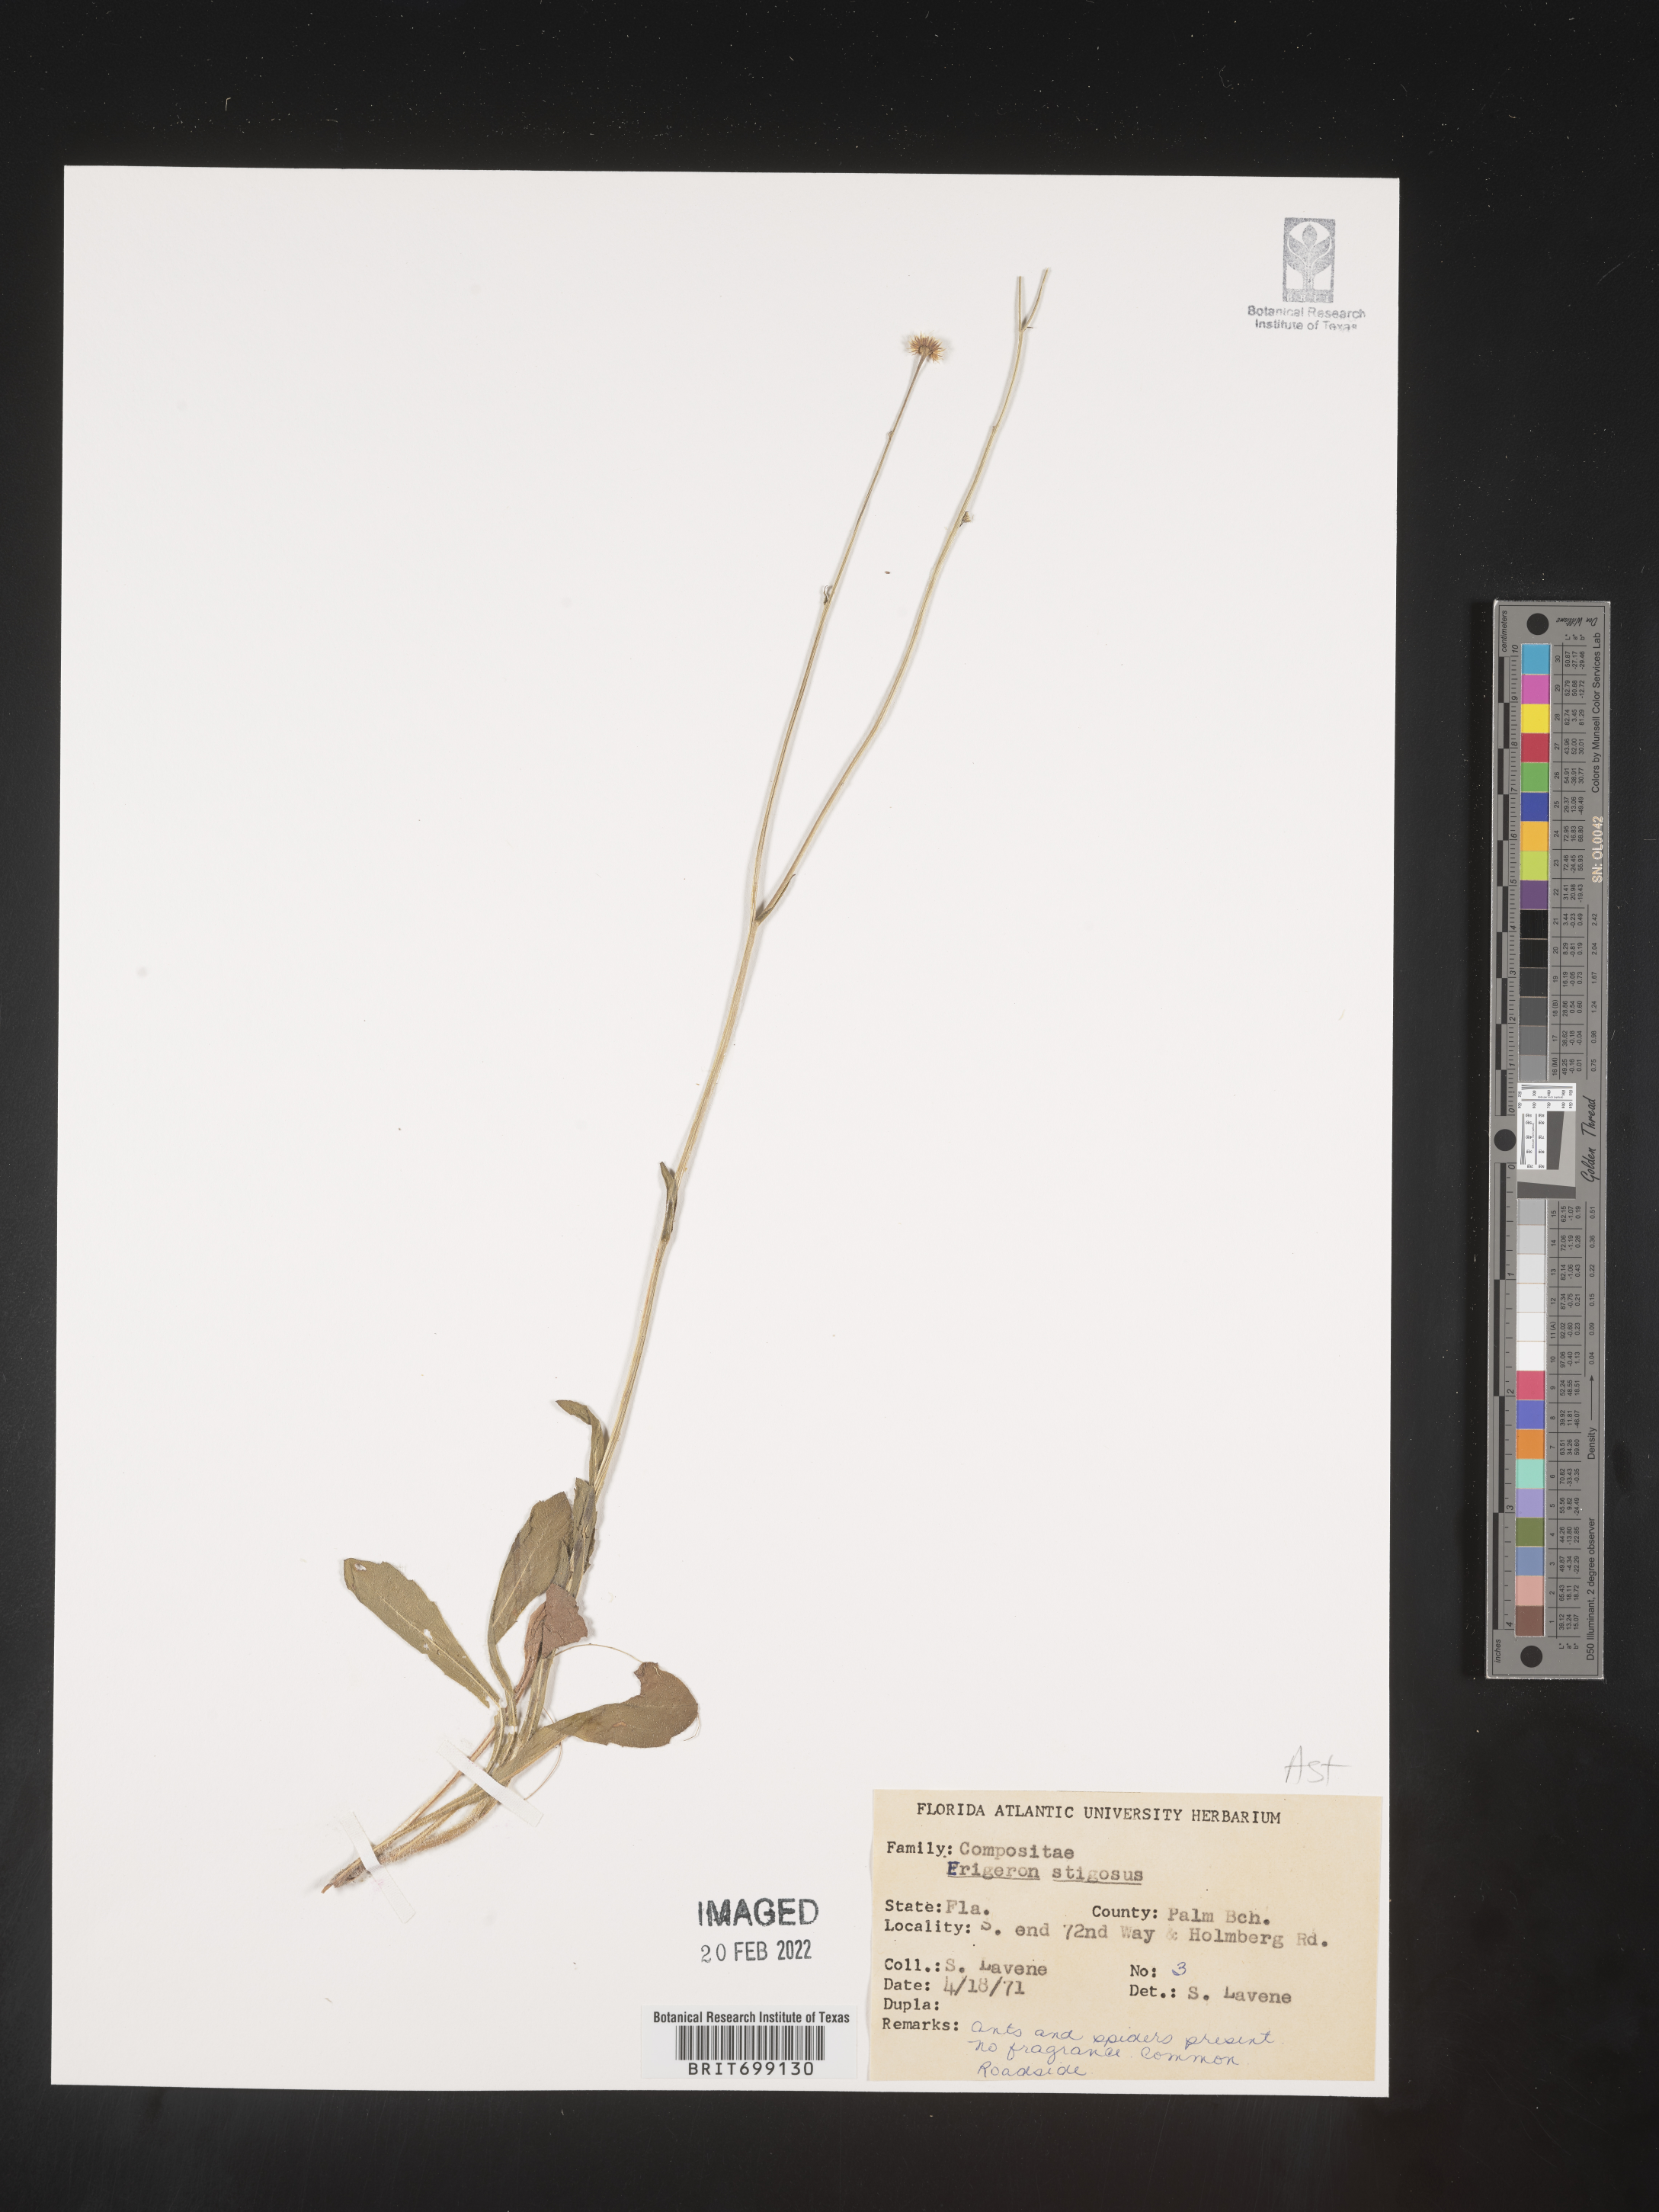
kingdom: Plantae
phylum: Tracheophyta
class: Magnoliopsida
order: Asterales
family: Asteraceae
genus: Erigeron
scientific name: Erigeron quercifolius
